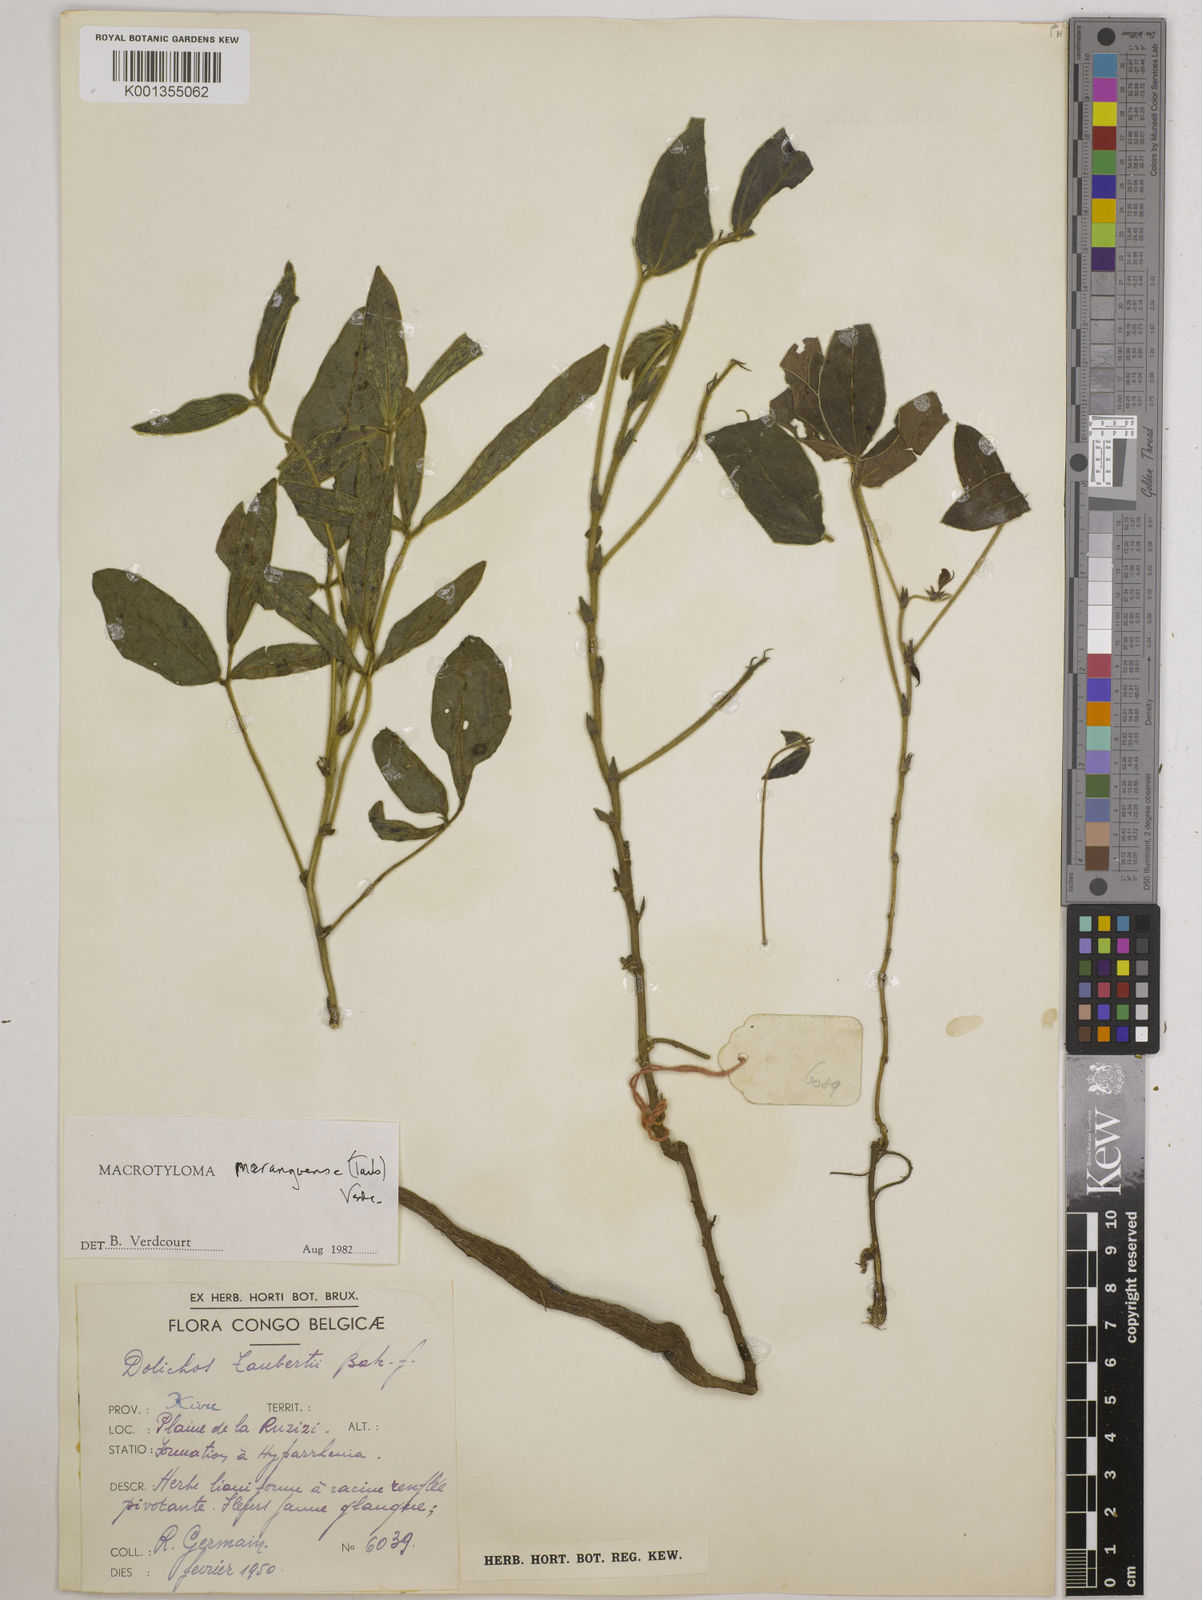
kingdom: Plantae
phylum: Tracheophyta
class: Magnoliopsida
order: Fabales
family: Fabaceae
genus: Macrotyloma
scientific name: Macrotyloma maranguense
